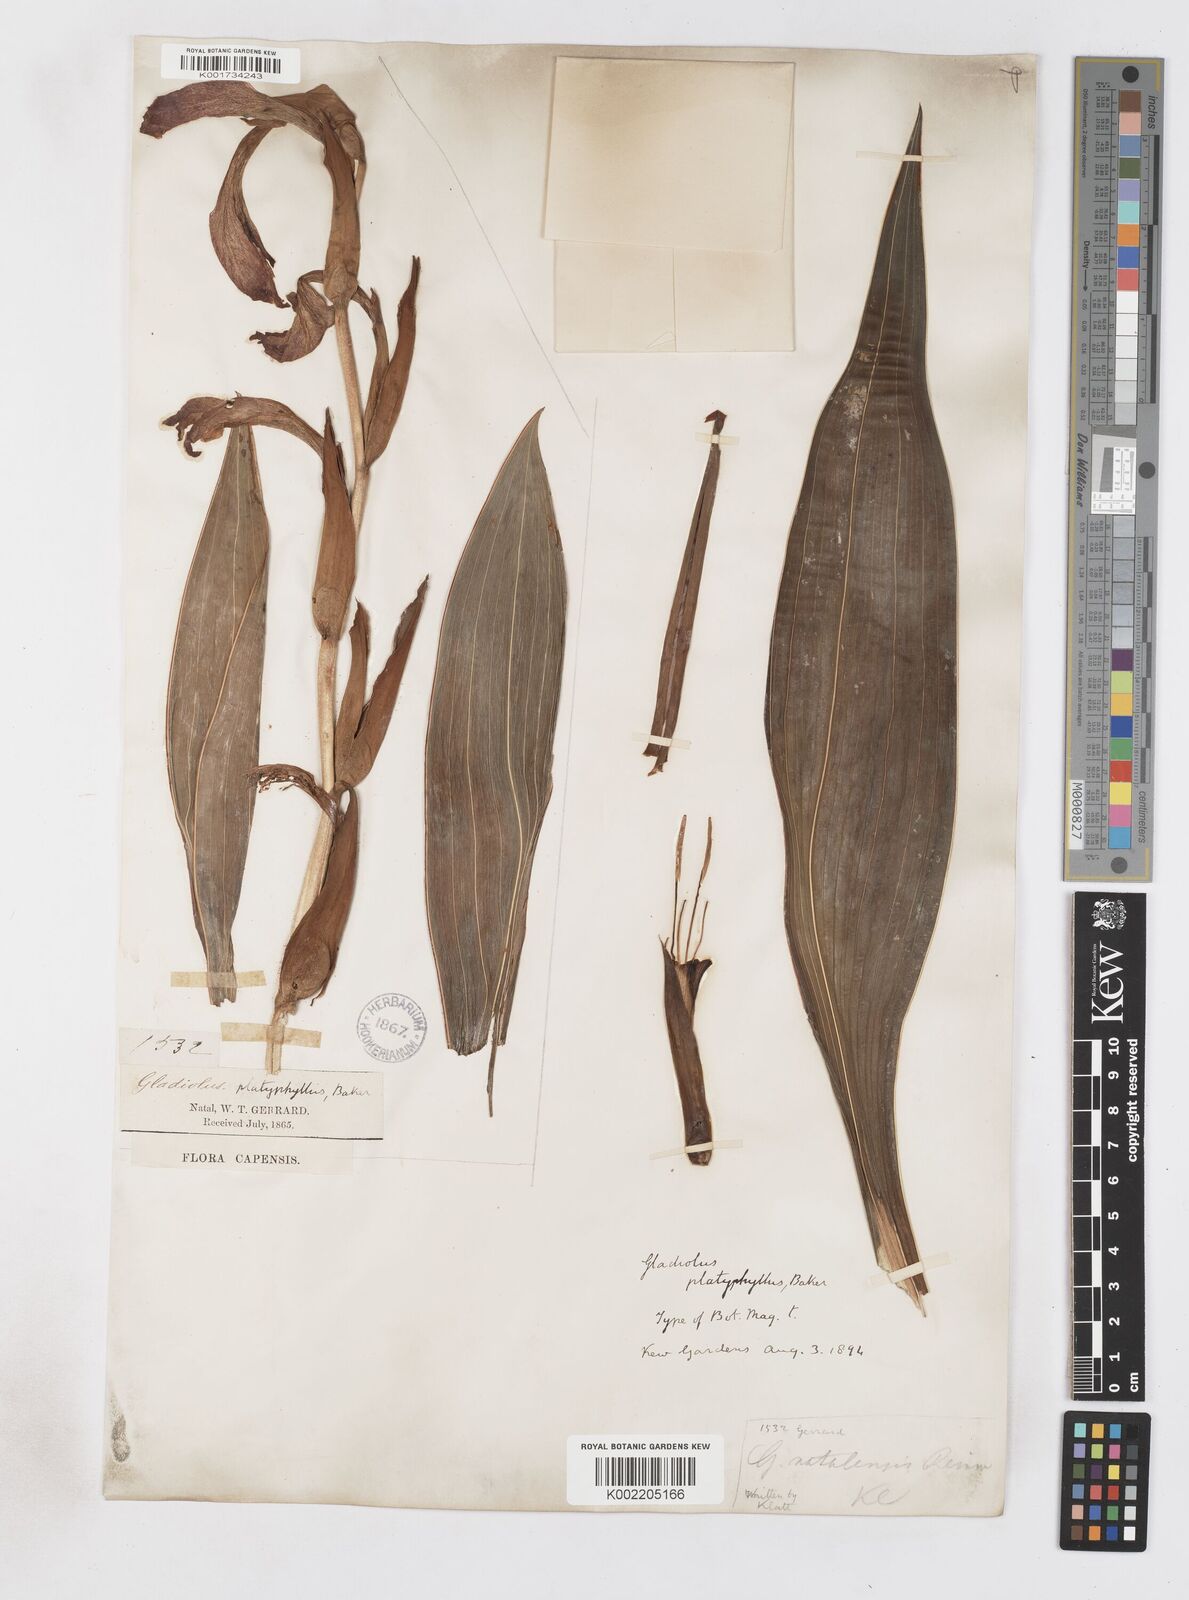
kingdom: Plantae
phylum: Tracheophyta
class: Liliopsida
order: Asparagales
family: Iridaceae
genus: Gladiolus
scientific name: Gladiolus dalenii
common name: Cornflag
